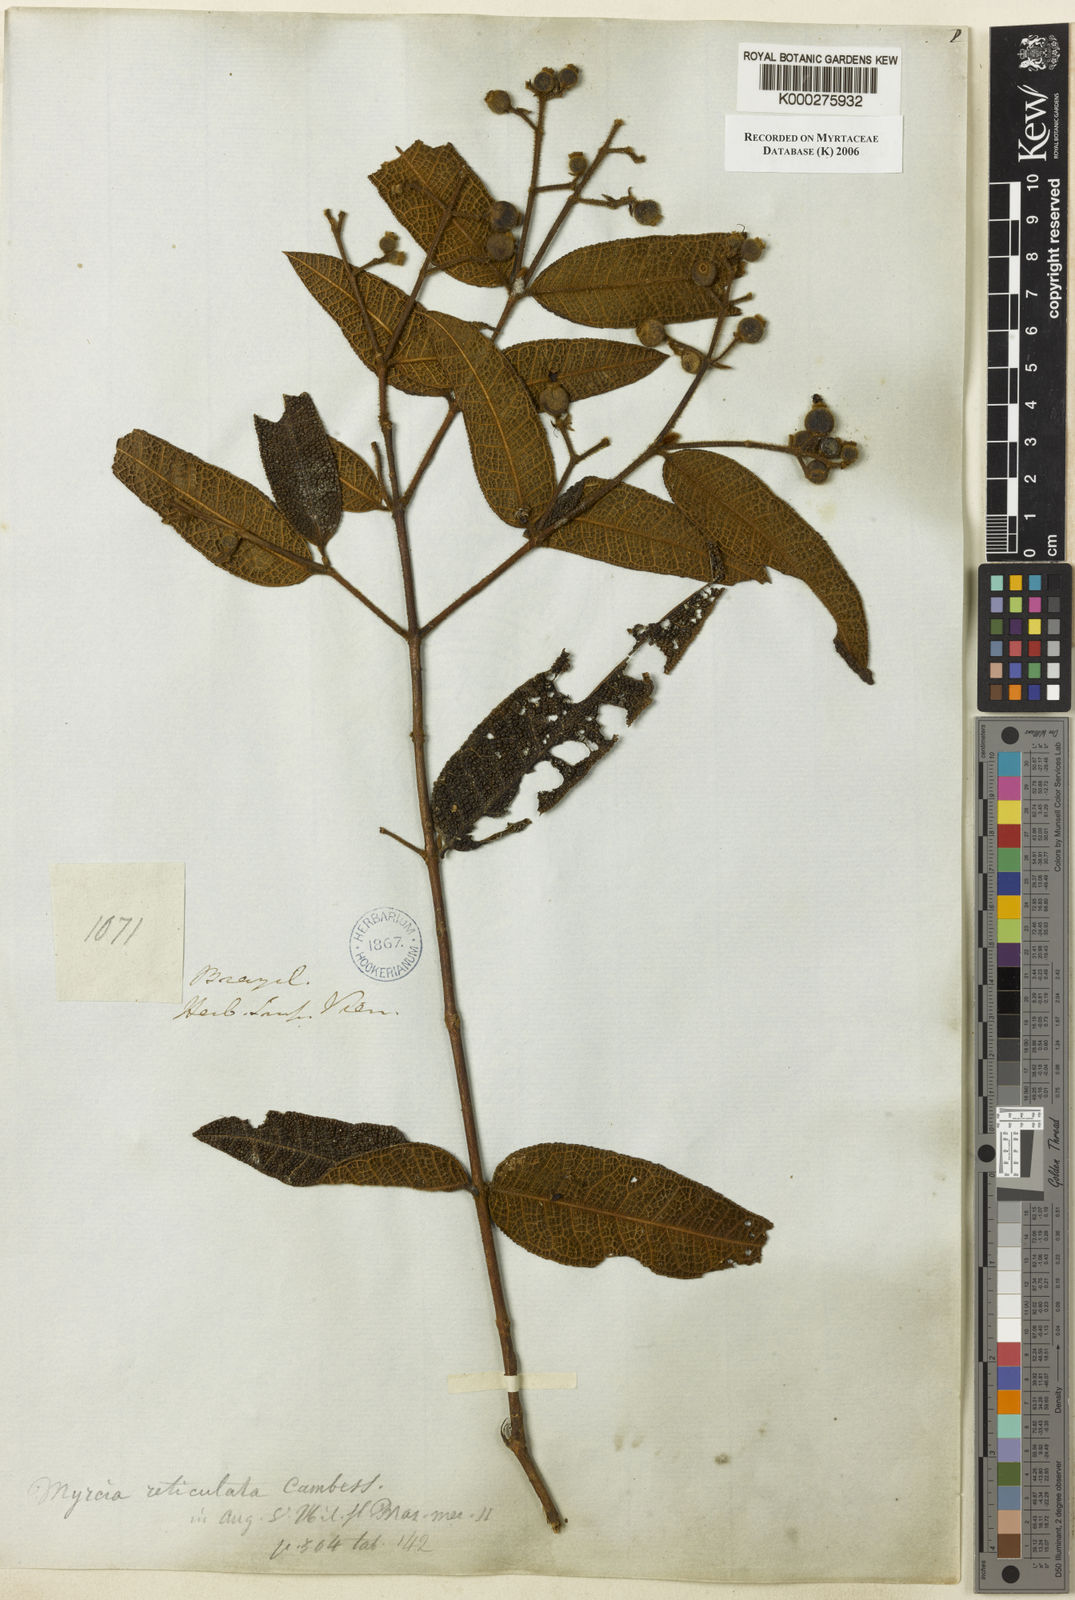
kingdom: Plantae
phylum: Tracheophyta
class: Magnoliopsida
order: Myrtales
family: Myrtaceae
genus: Myrcia
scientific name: Myrcia reticulata
